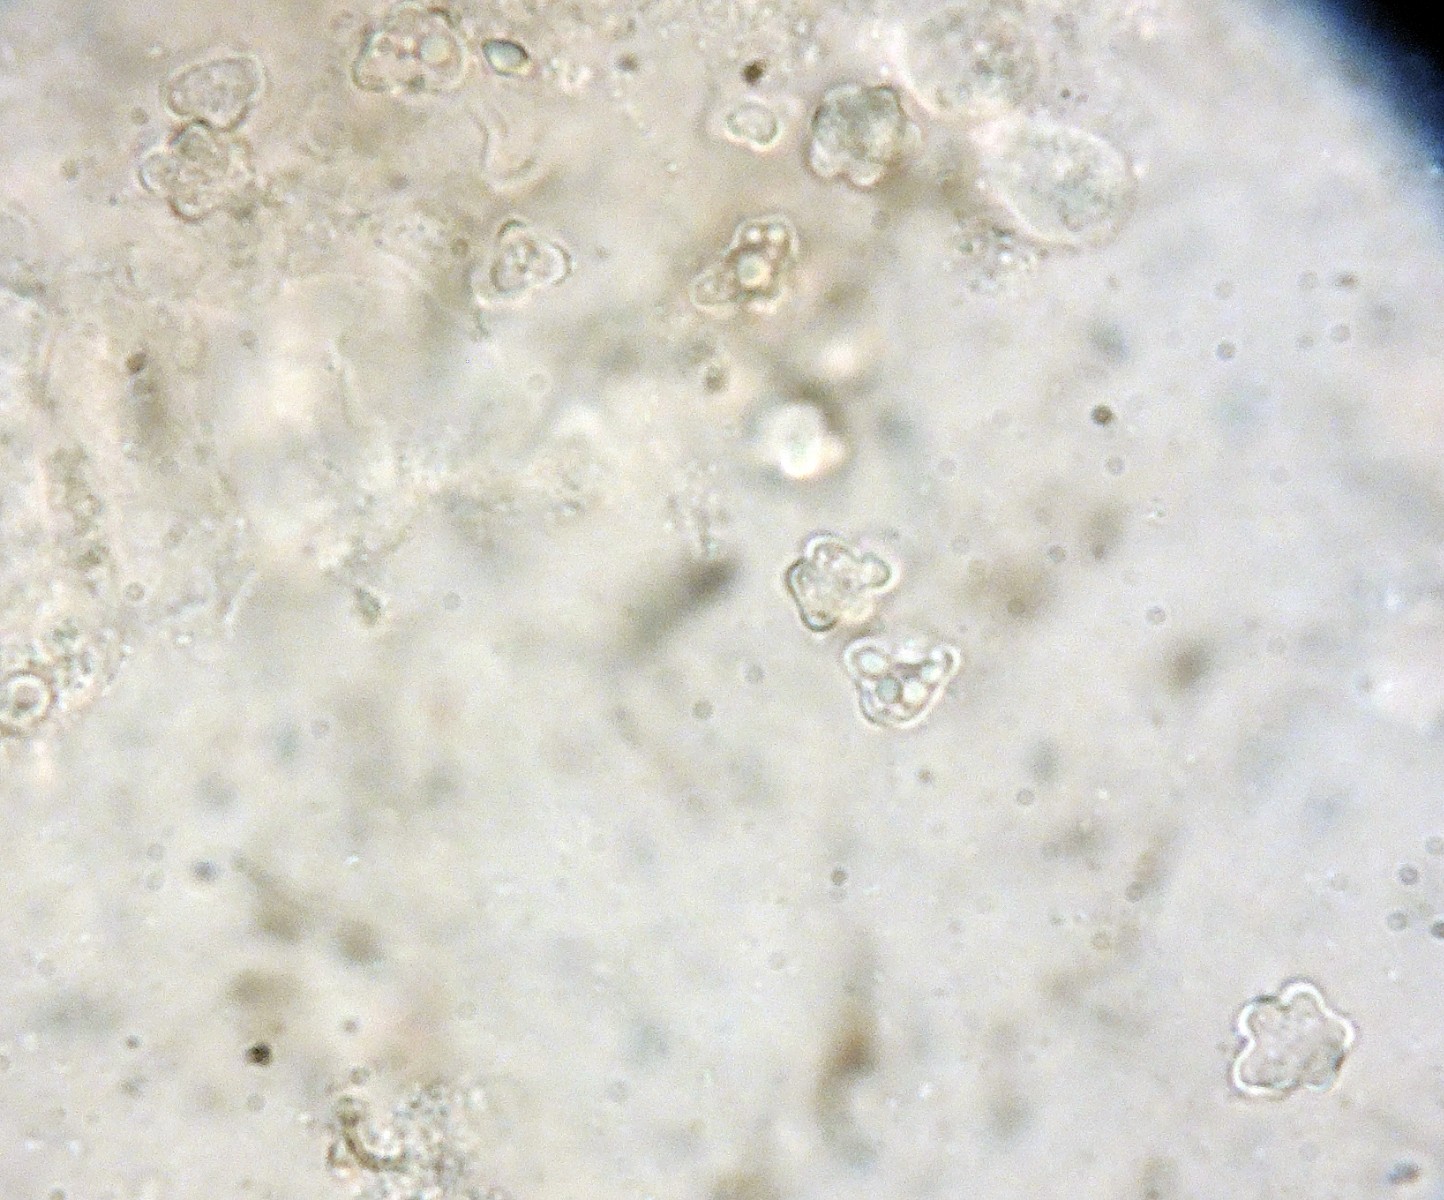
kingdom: Fungi
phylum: Basidiomycota
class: Agaricomycetes
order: Agaricales
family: Lyophyllaceae
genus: Sagaranella
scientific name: Sagaranella gibberosa
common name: pukkelsporet gråblad
